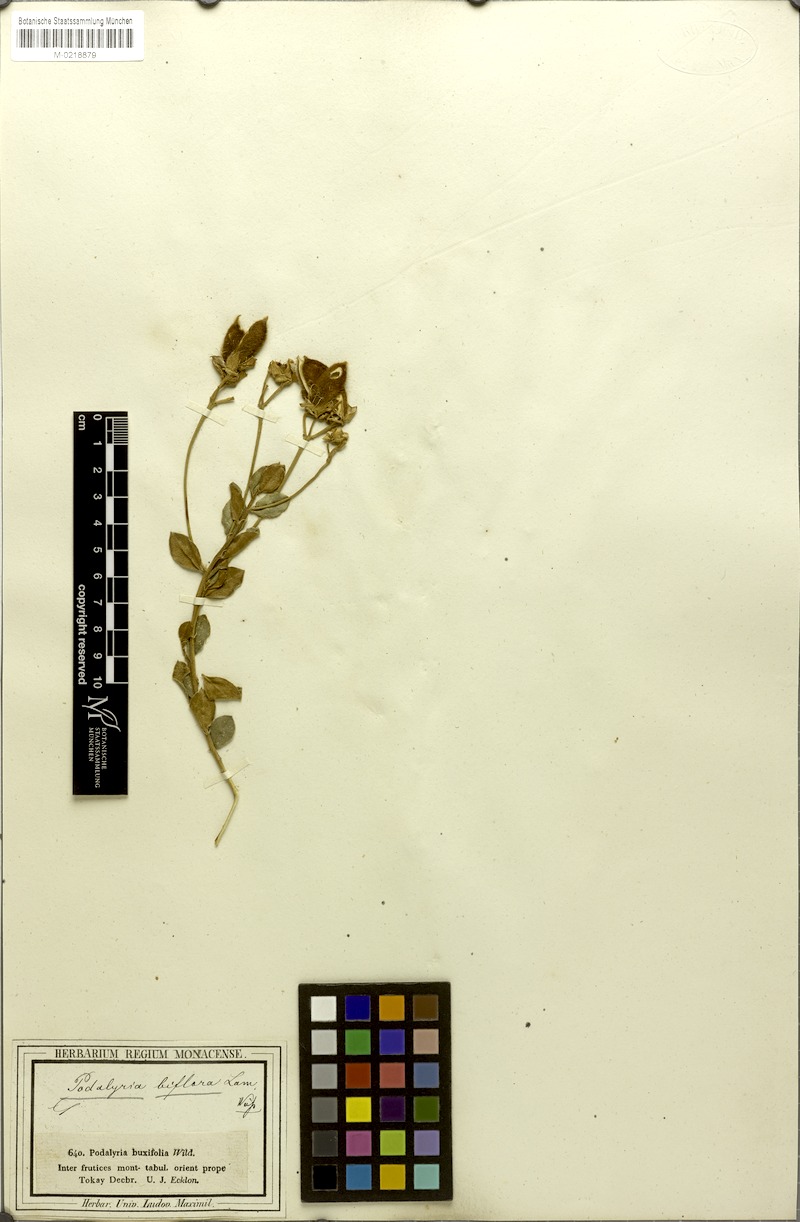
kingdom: Plantae
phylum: Tracheophyta
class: Magnoliopsida
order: Fabales
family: Fabaceae
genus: Podalyria
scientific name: Podalyria biflora
